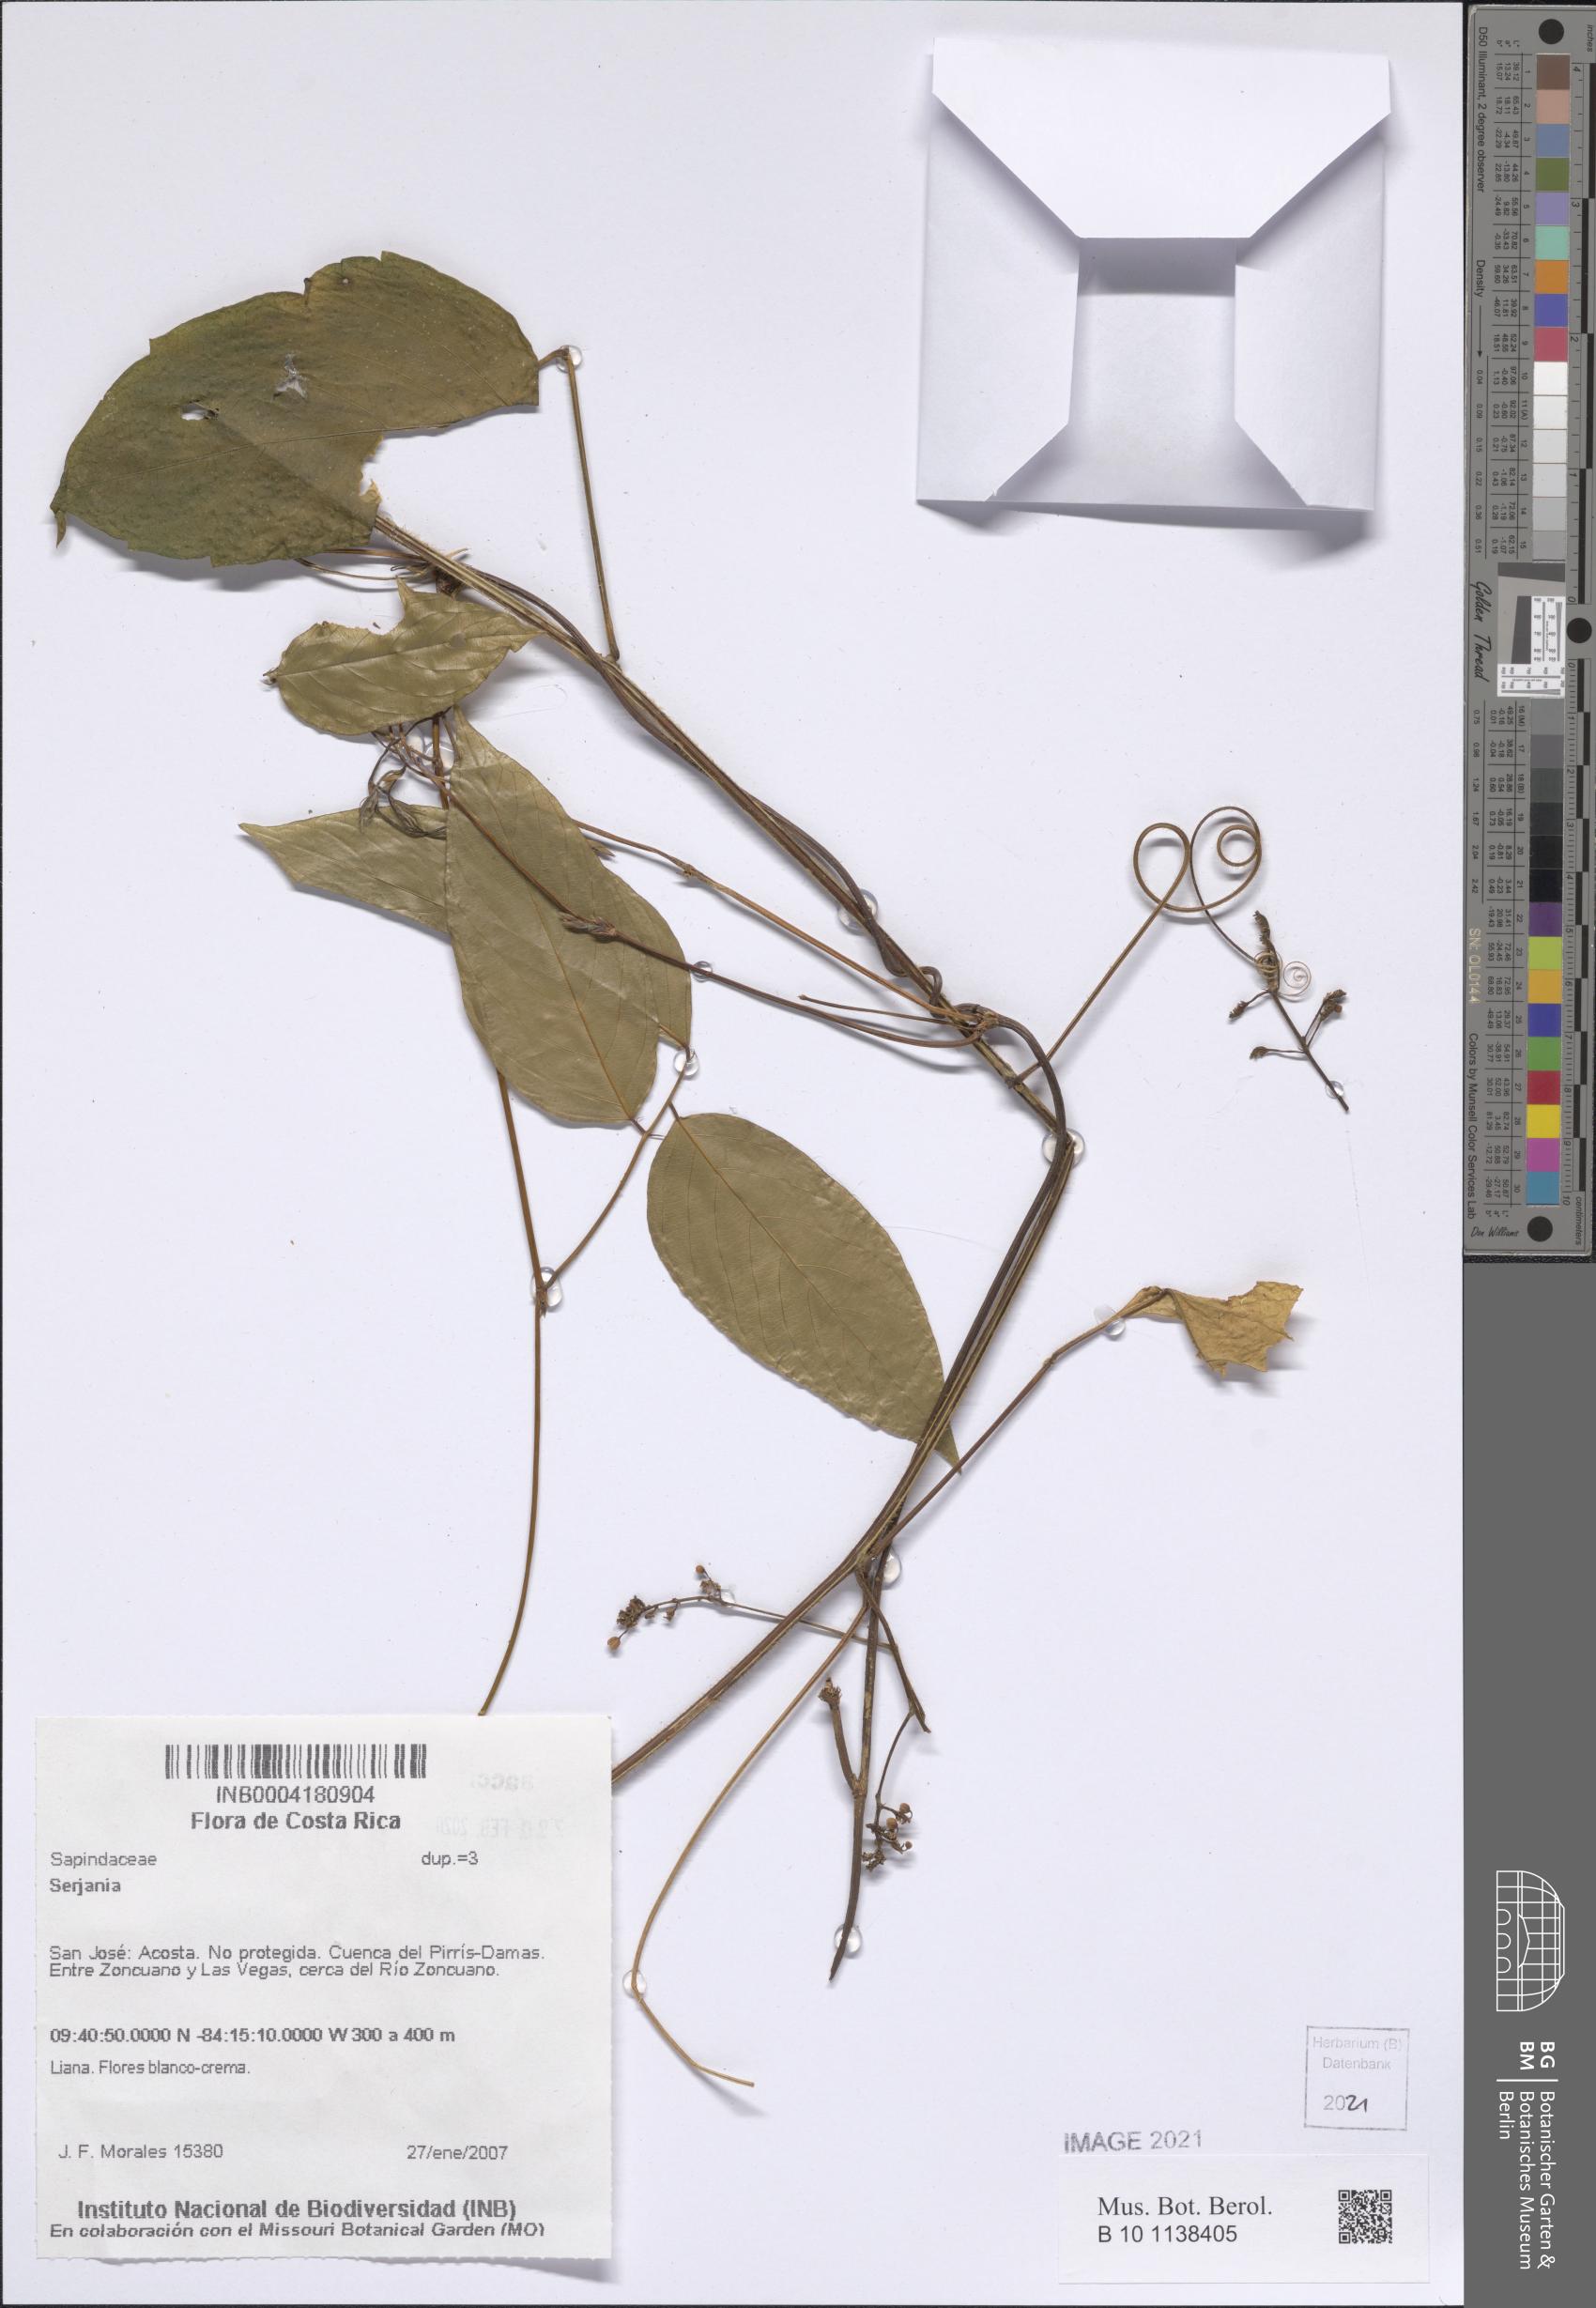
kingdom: Plantae
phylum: Tracheophyta
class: Magnoliopsida
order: Sapindales
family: Sapindaceae
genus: Serjania
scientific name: Serjania
